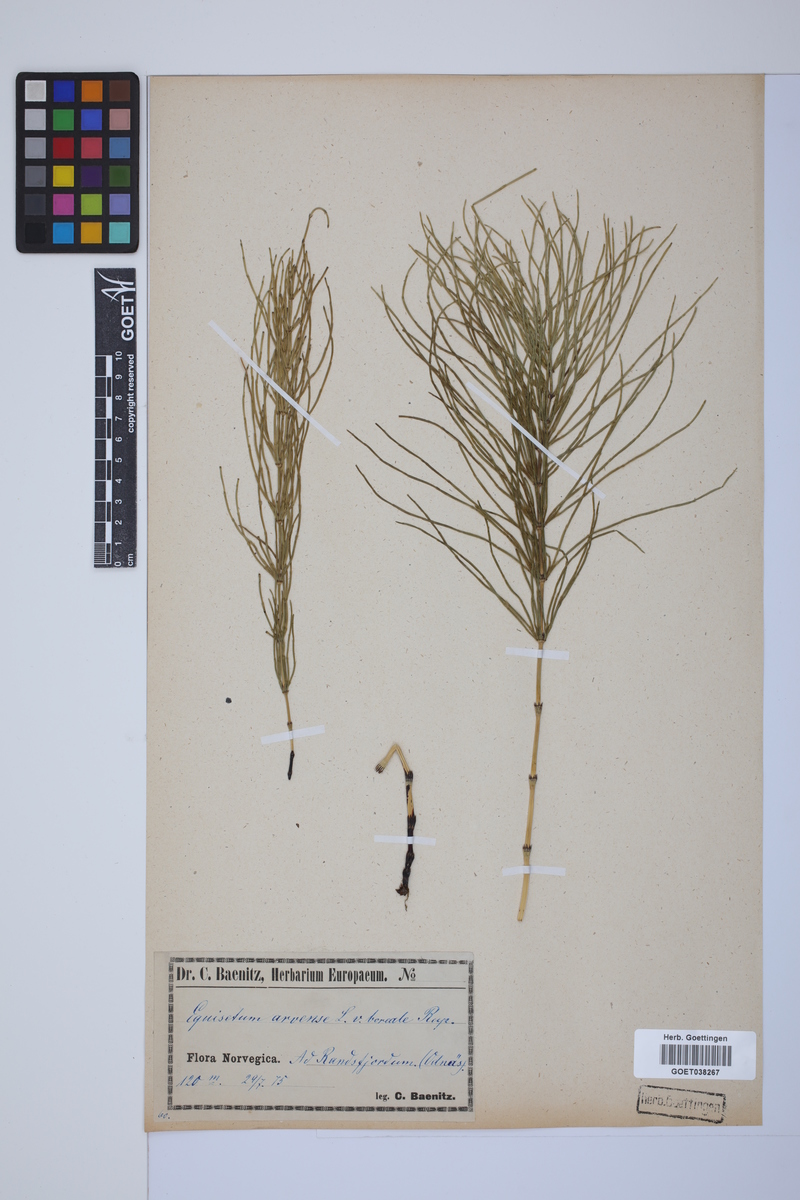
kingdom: Plantae
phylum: Tracheophyta
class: Polypodiopsida
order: Equisetales
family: Equisetaceae
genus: Equisetum
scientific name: Equisetum arvense
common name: Field horsetail
